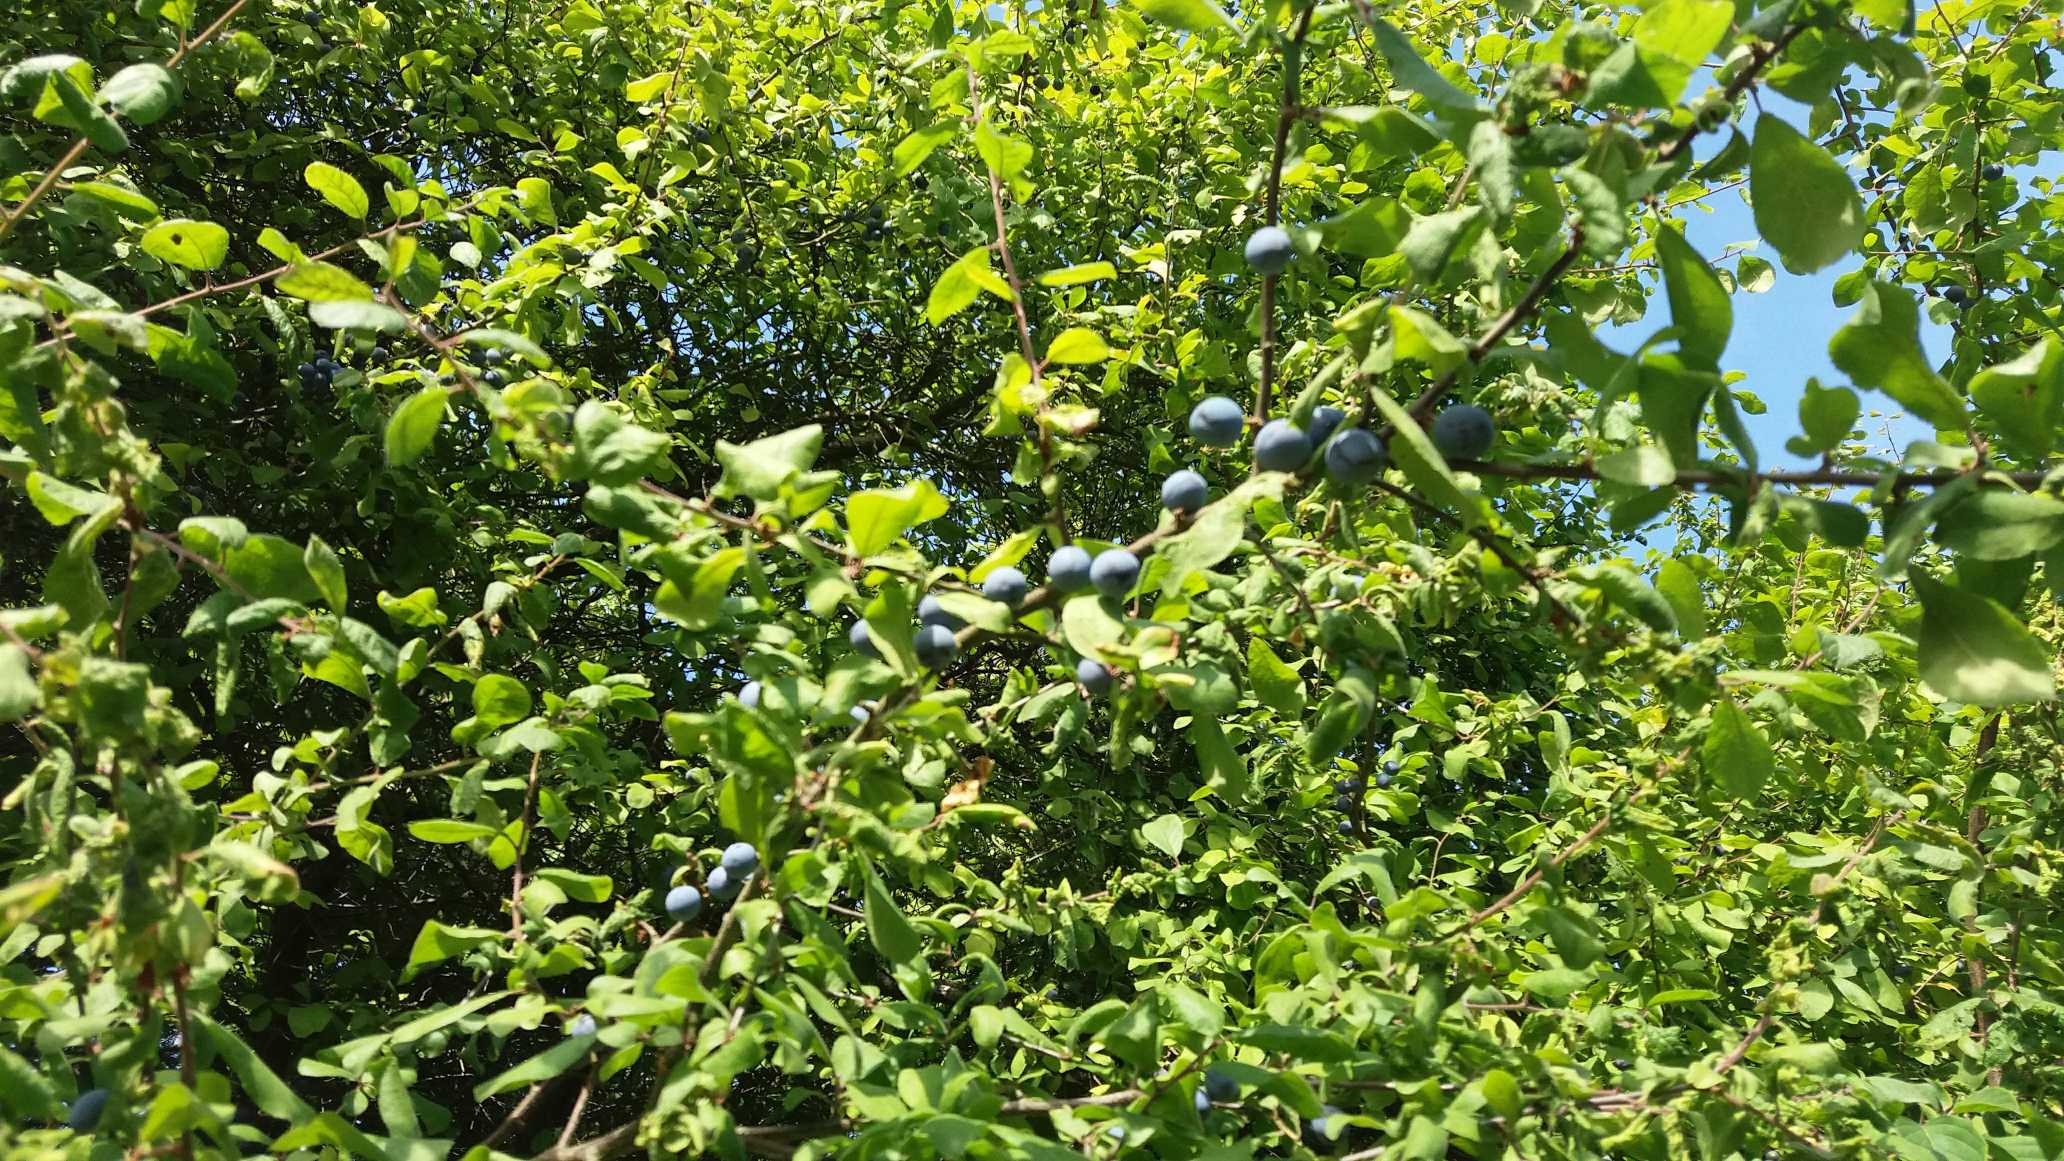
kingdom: Plantae
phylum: Tracheophyta
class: Magnoliopsida
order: Rosales
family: Rosaceae
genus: Prunus
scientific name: Prunus spinosa
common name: Slåen
